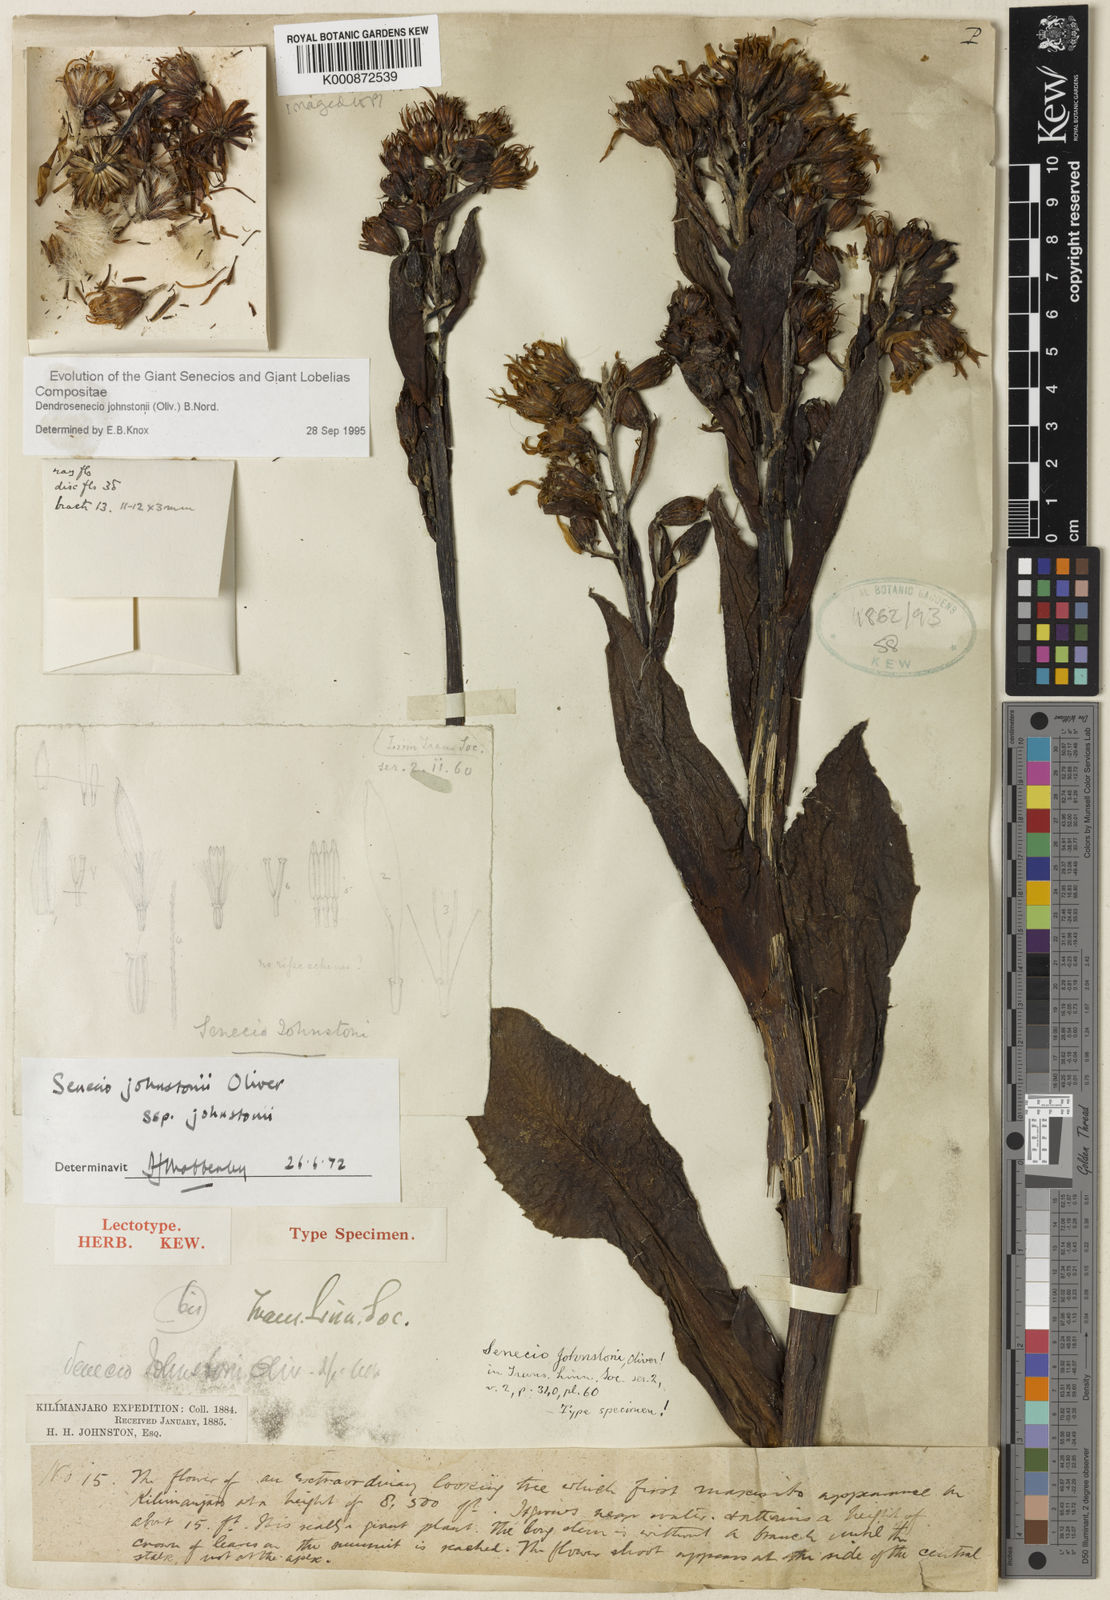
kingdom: Plantae
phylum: Tracheophyta
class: Magnoliopsida
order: Asterales
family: Asteraceae
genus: Dendrosenecio
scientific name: Dendrosenecio johnstonii
